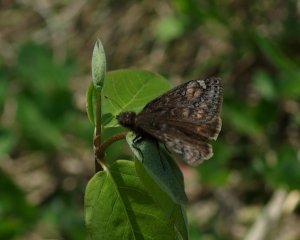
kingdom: Animalia
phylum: Arthropoda
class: Insecta
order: Lepidoptera
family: Hesperiidae
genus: Gesta
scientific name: Gesta
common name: Juvenal's Duskywing
